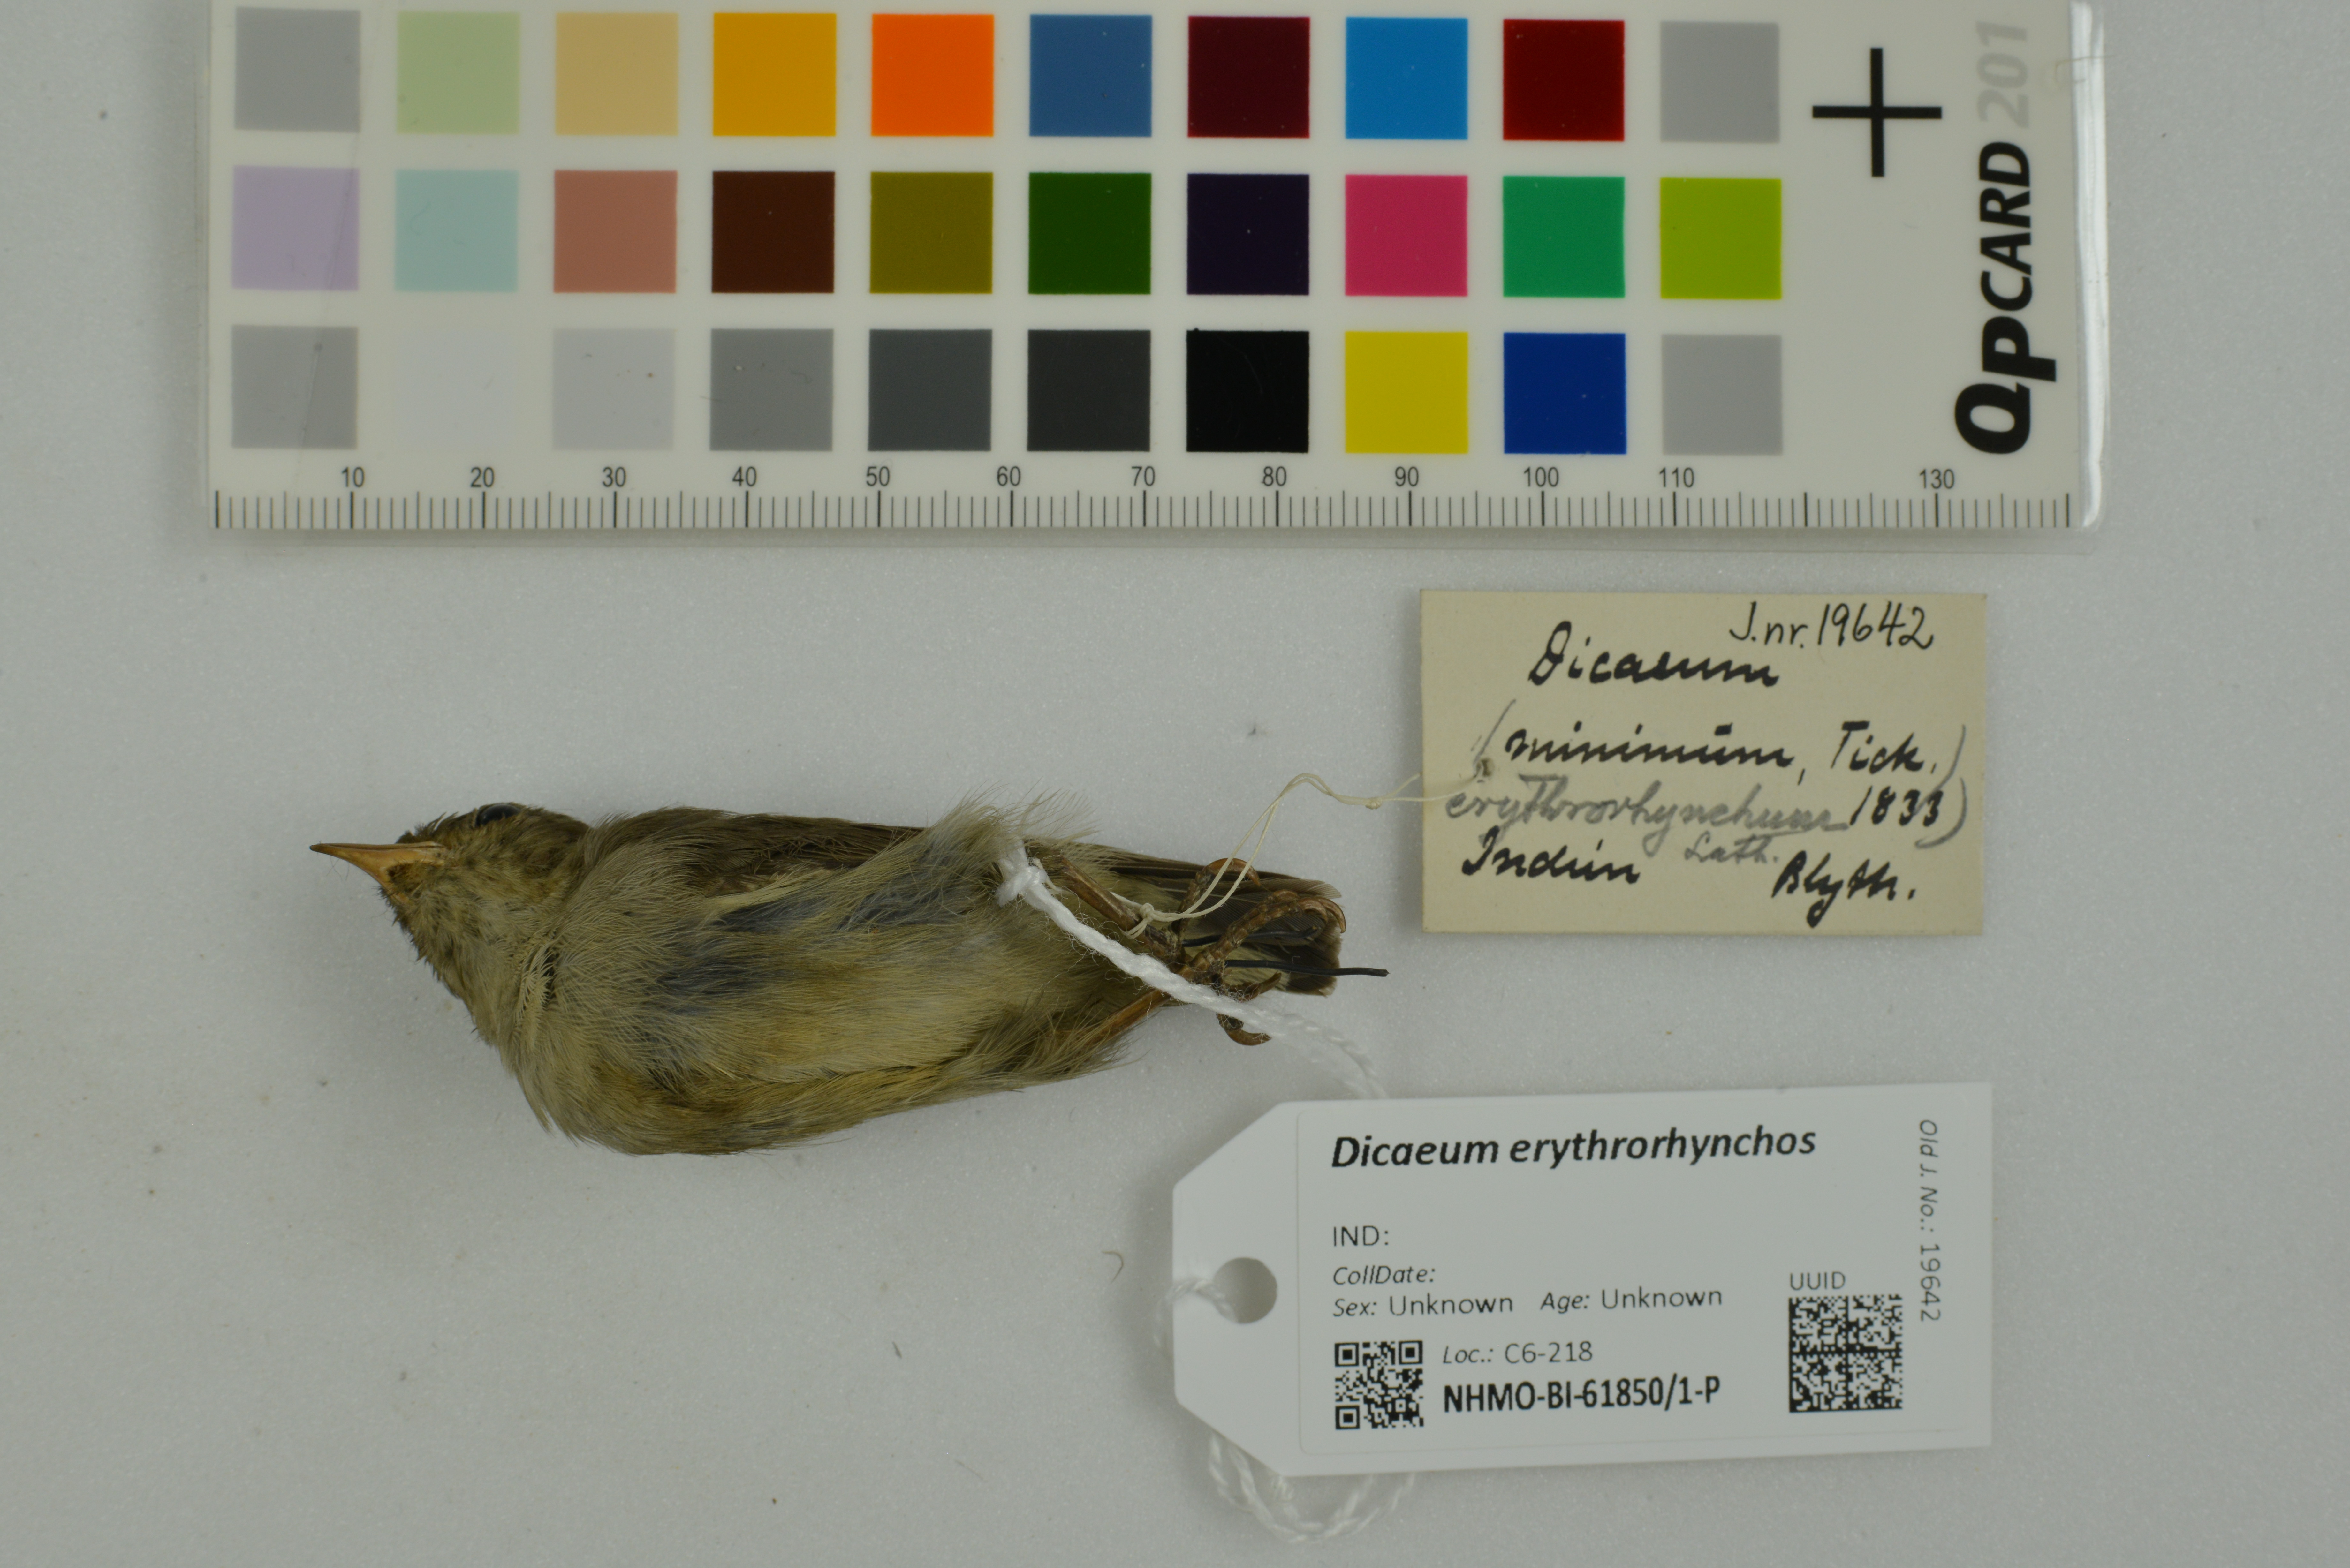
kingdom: Animalia
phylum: Chordata
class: Aves
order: Passeriformes
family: Dicaeidae
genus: Dicaeum
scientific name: Dicaeum erythrorhynchos
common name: Pale-billed flowerpecker
